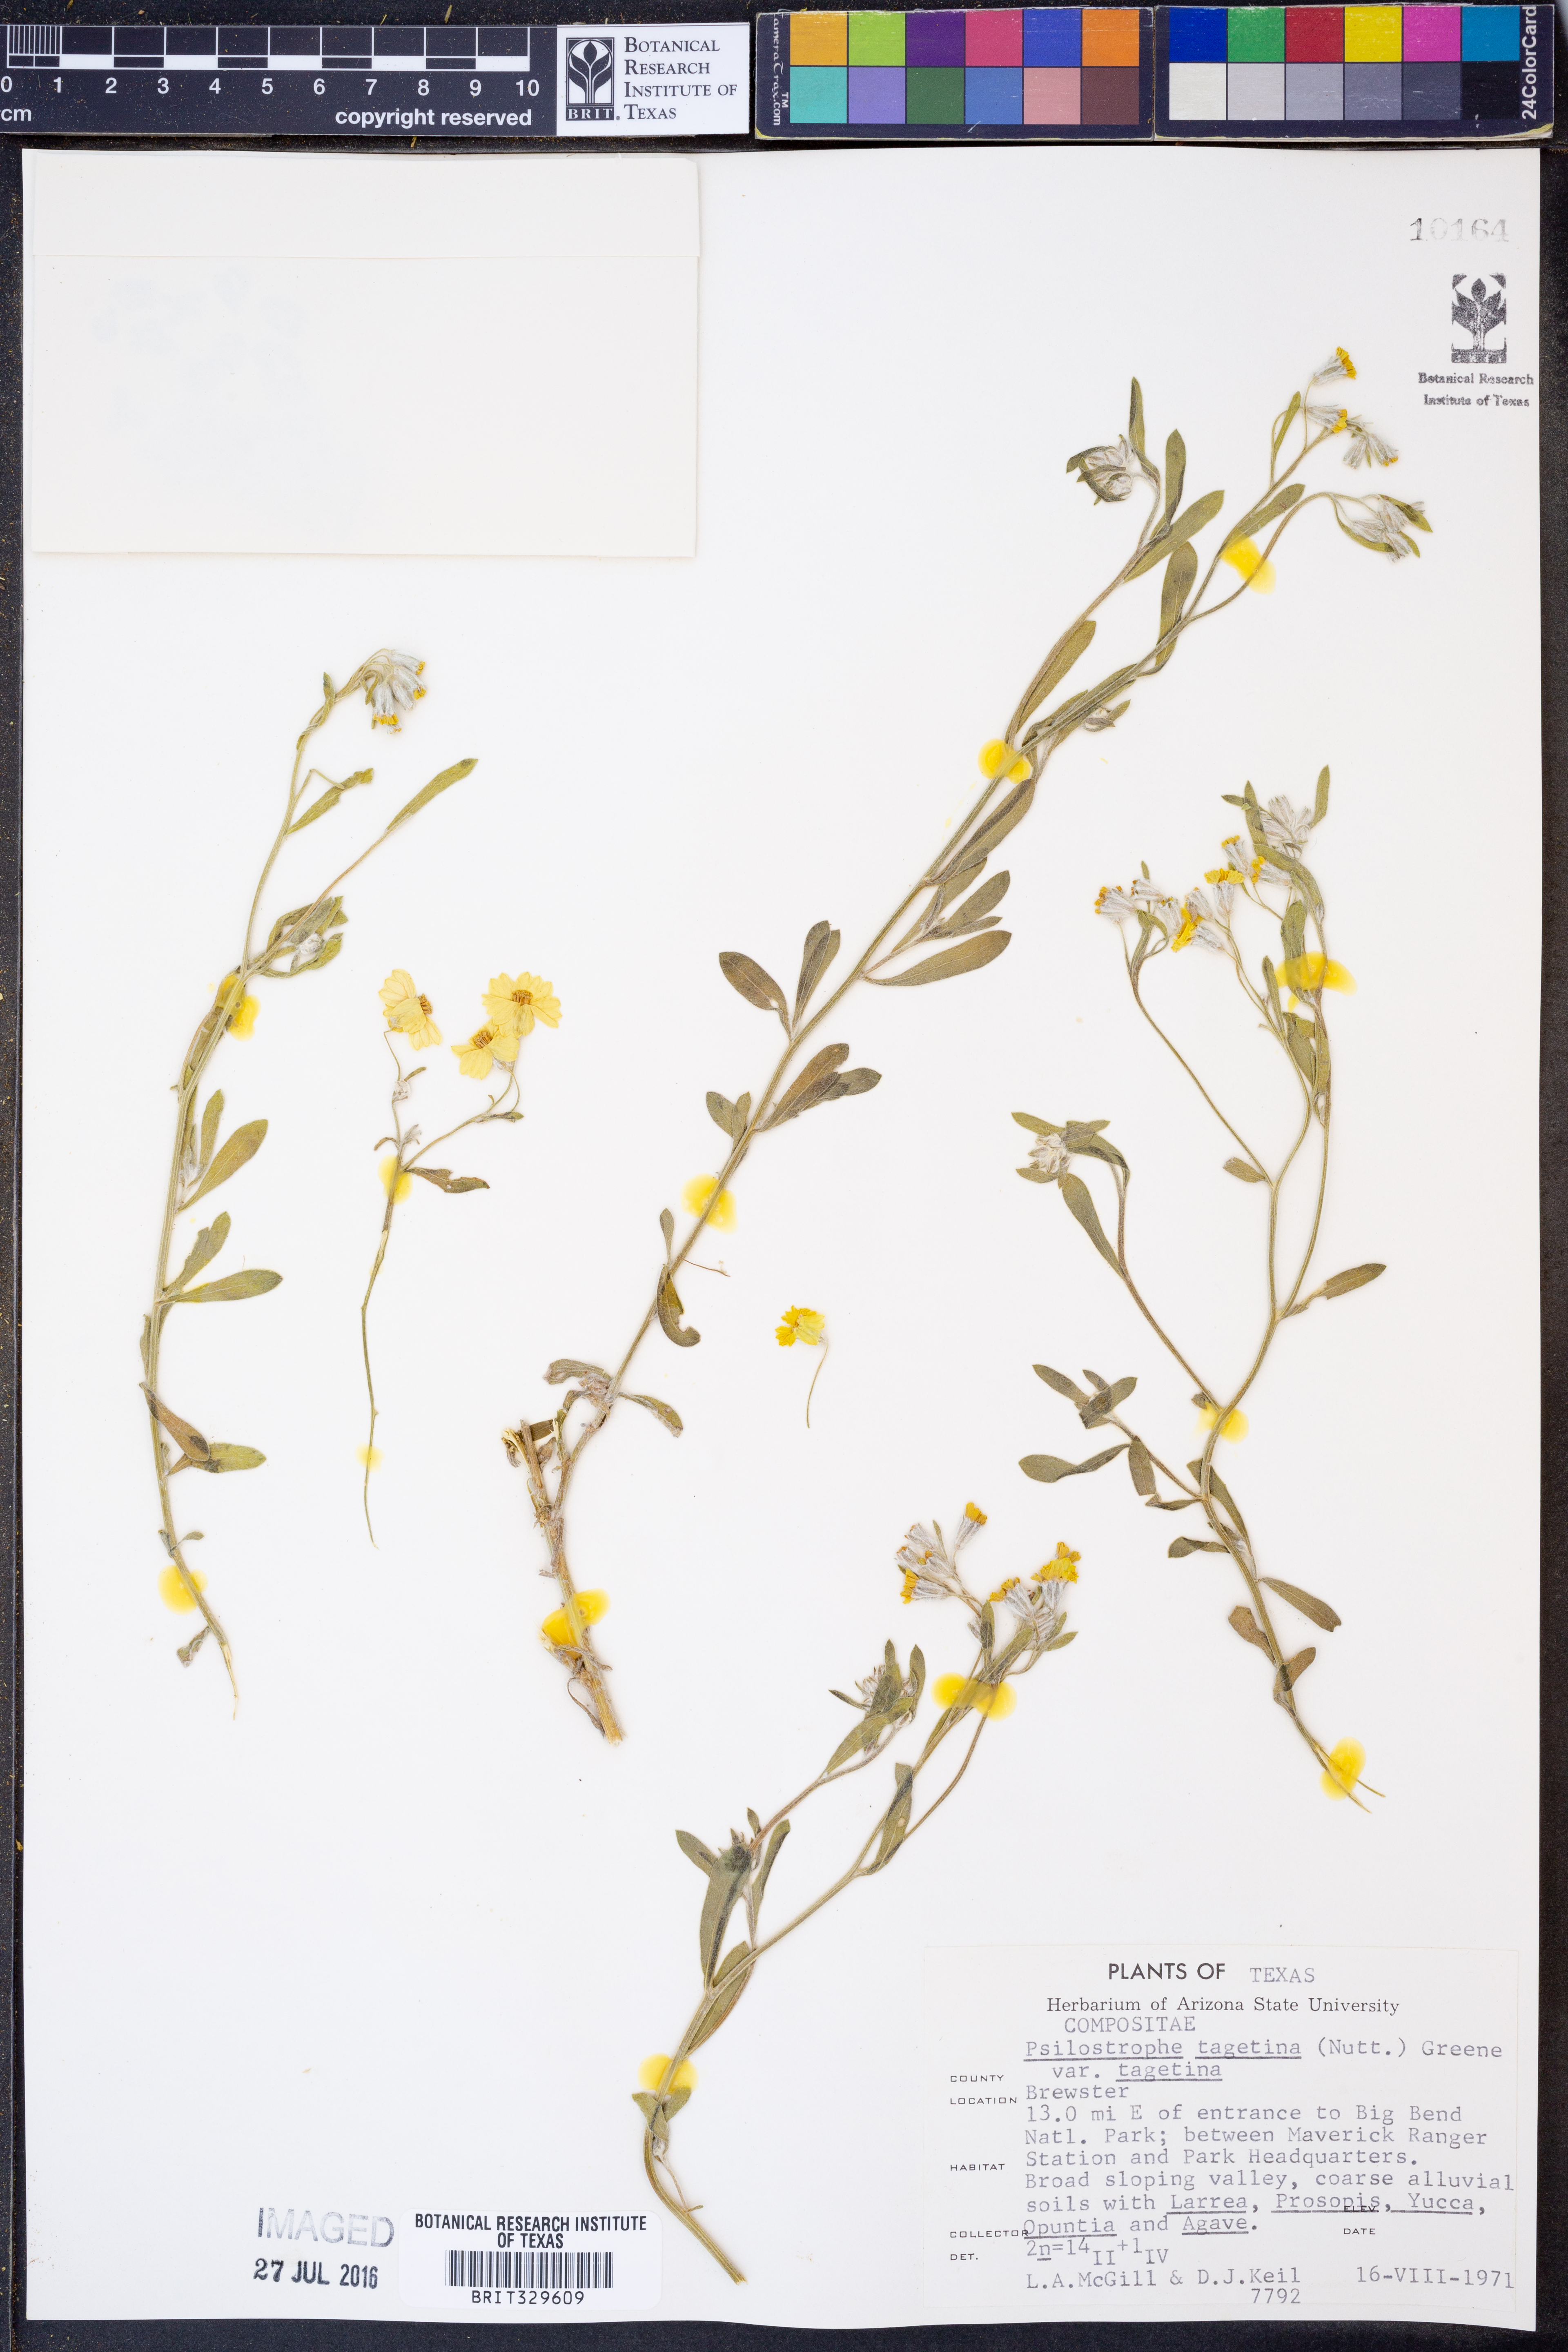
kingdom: Plantae
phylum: Tracheophyta
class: Magnoliopsida
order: Asterales
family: Asteraceae
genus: Psilostrophe
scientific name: Psilostrophe tagetina
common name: Marigold paper-flower
